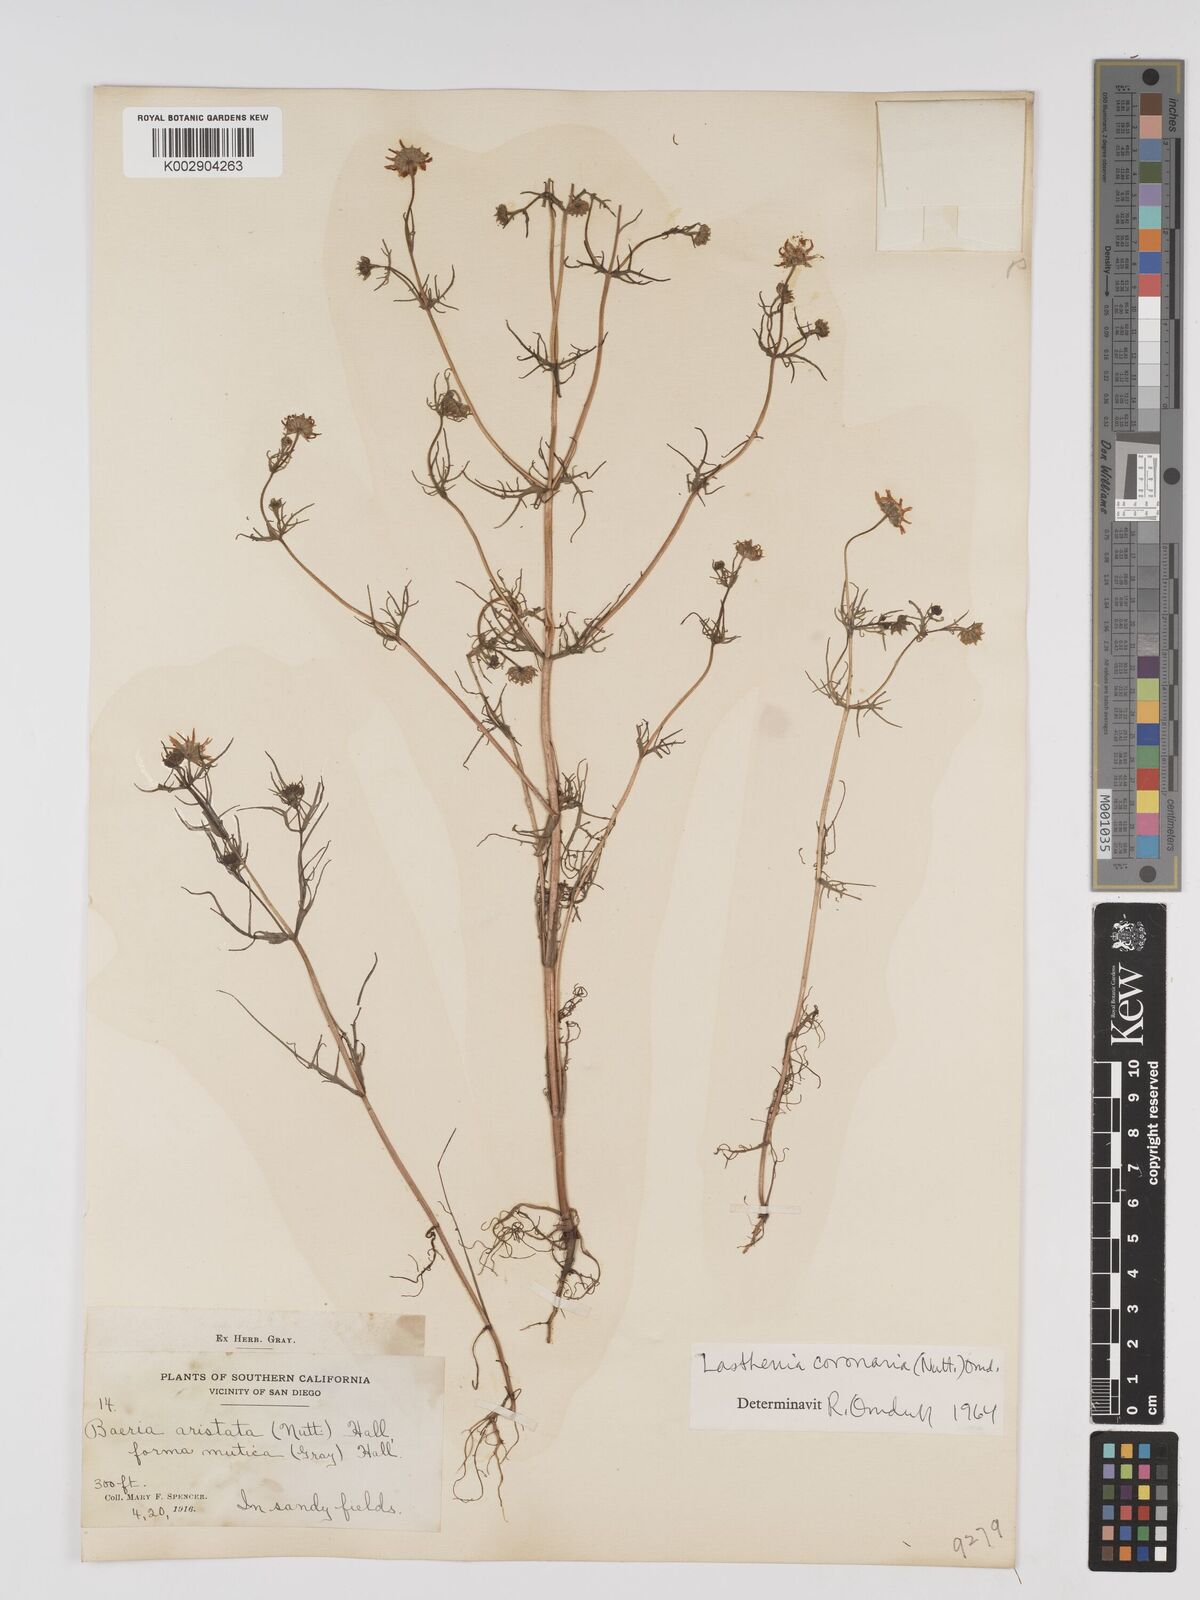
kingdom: Plantae
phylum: Tracheophyta
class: Magnoliopsida
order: Asterales
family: Asteraceae
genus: Lasthenia
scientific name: Lasthenia coronaria
